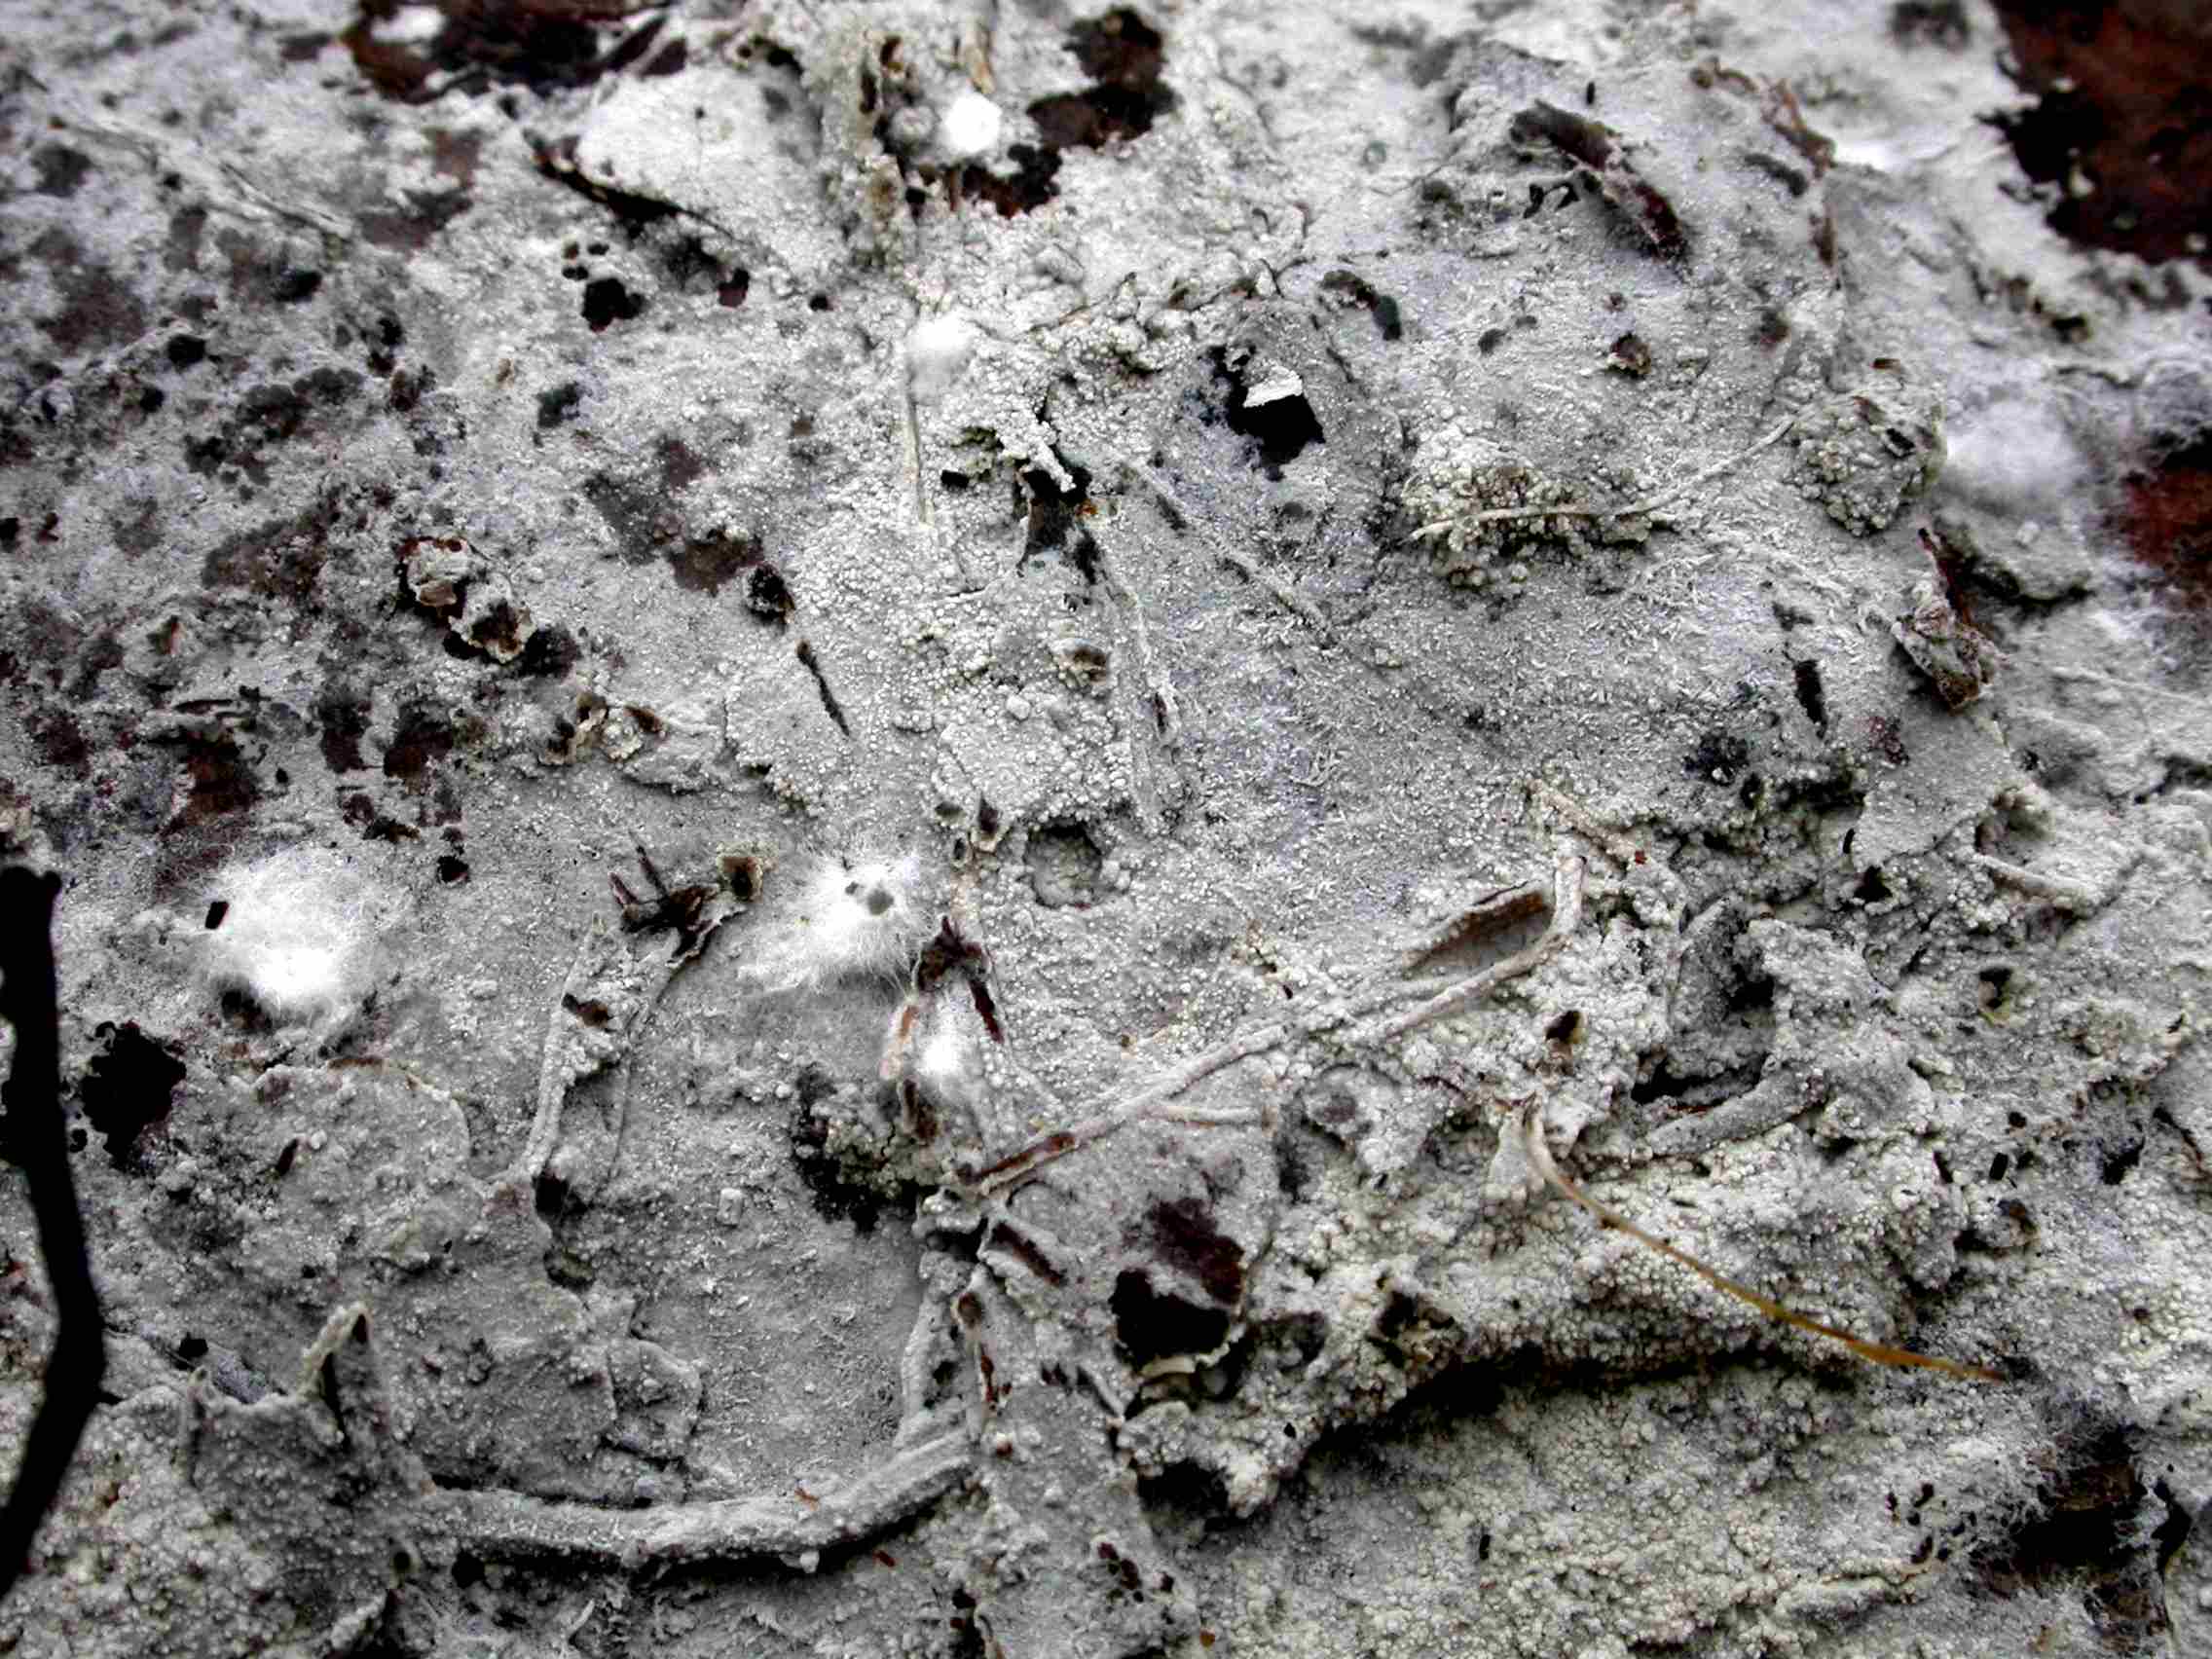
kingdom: Fungi
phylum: Basidiomycota
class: Agaricomycetes
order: Cantharellales
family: Hydnaceae
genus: Sistotrema
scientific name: Sistotrema brinkmannii
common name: bønnesporet kroneskorpe
